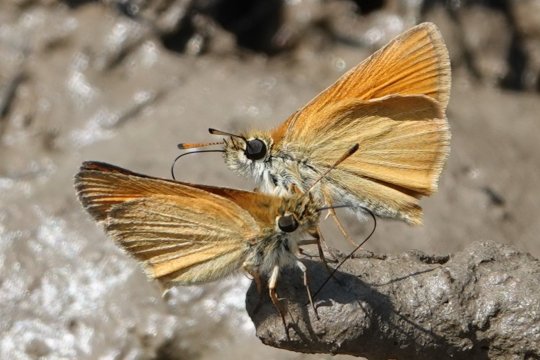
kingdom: Animalia
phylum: Arthropoda
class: Insecta
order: Lepidoptera
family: Hesperiidae
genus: Thymelicus
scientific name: Thymelicus lineola
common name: European Skipper
